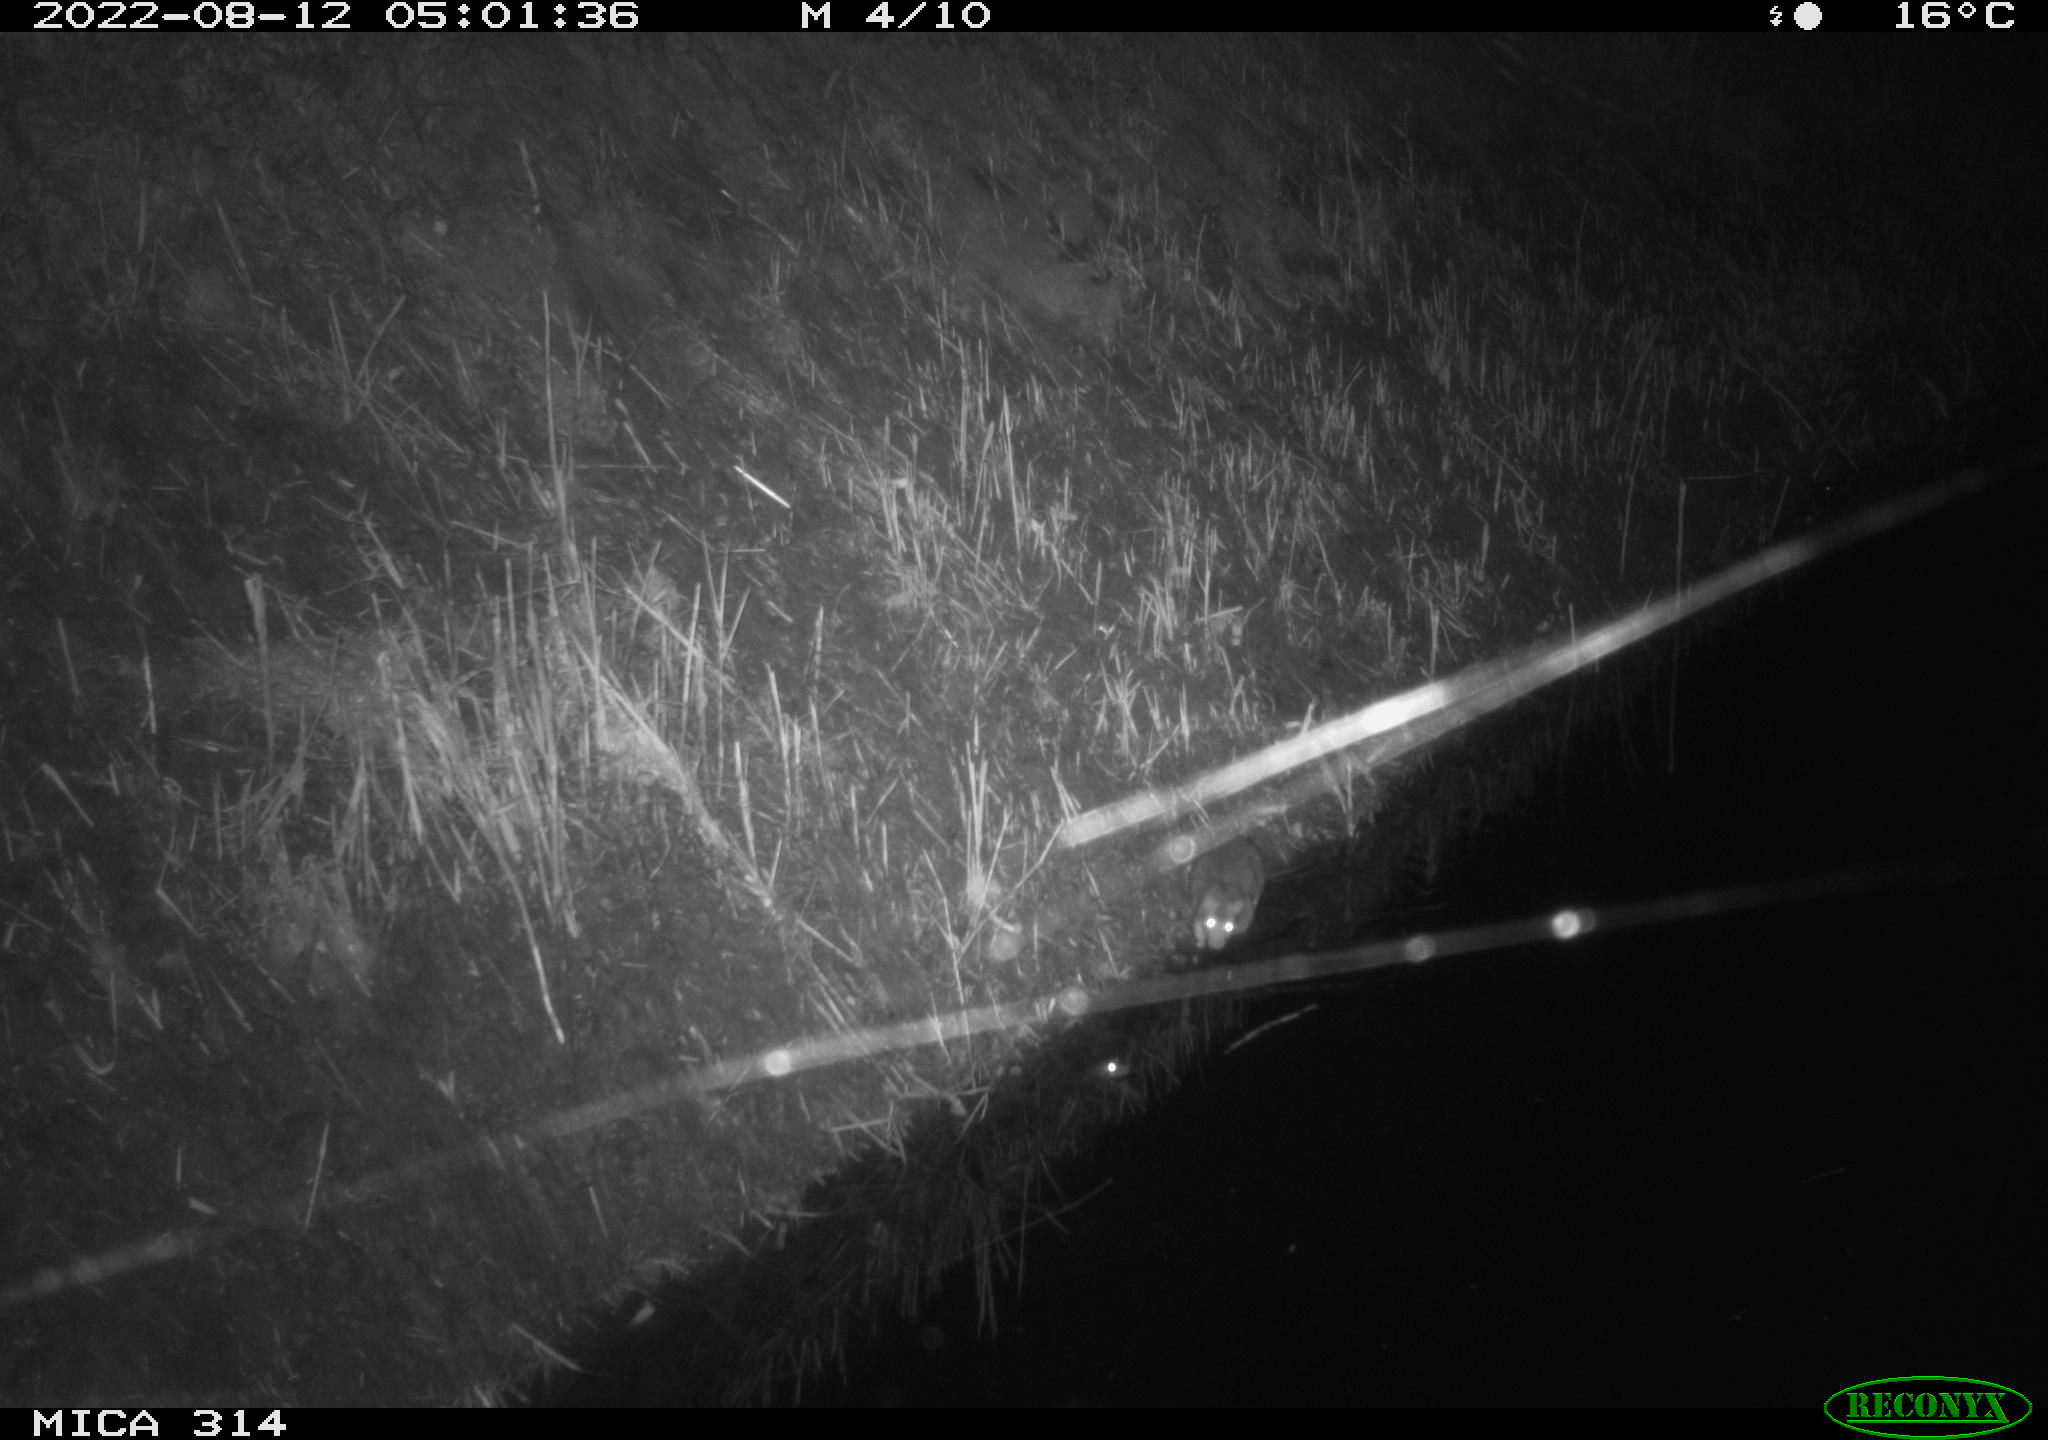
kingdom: Animalia
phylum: Chordata
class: Mammalia
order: Rodentia
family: Muridae
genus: Rattus
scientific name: Rattus norvegicus
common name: Brown rat
